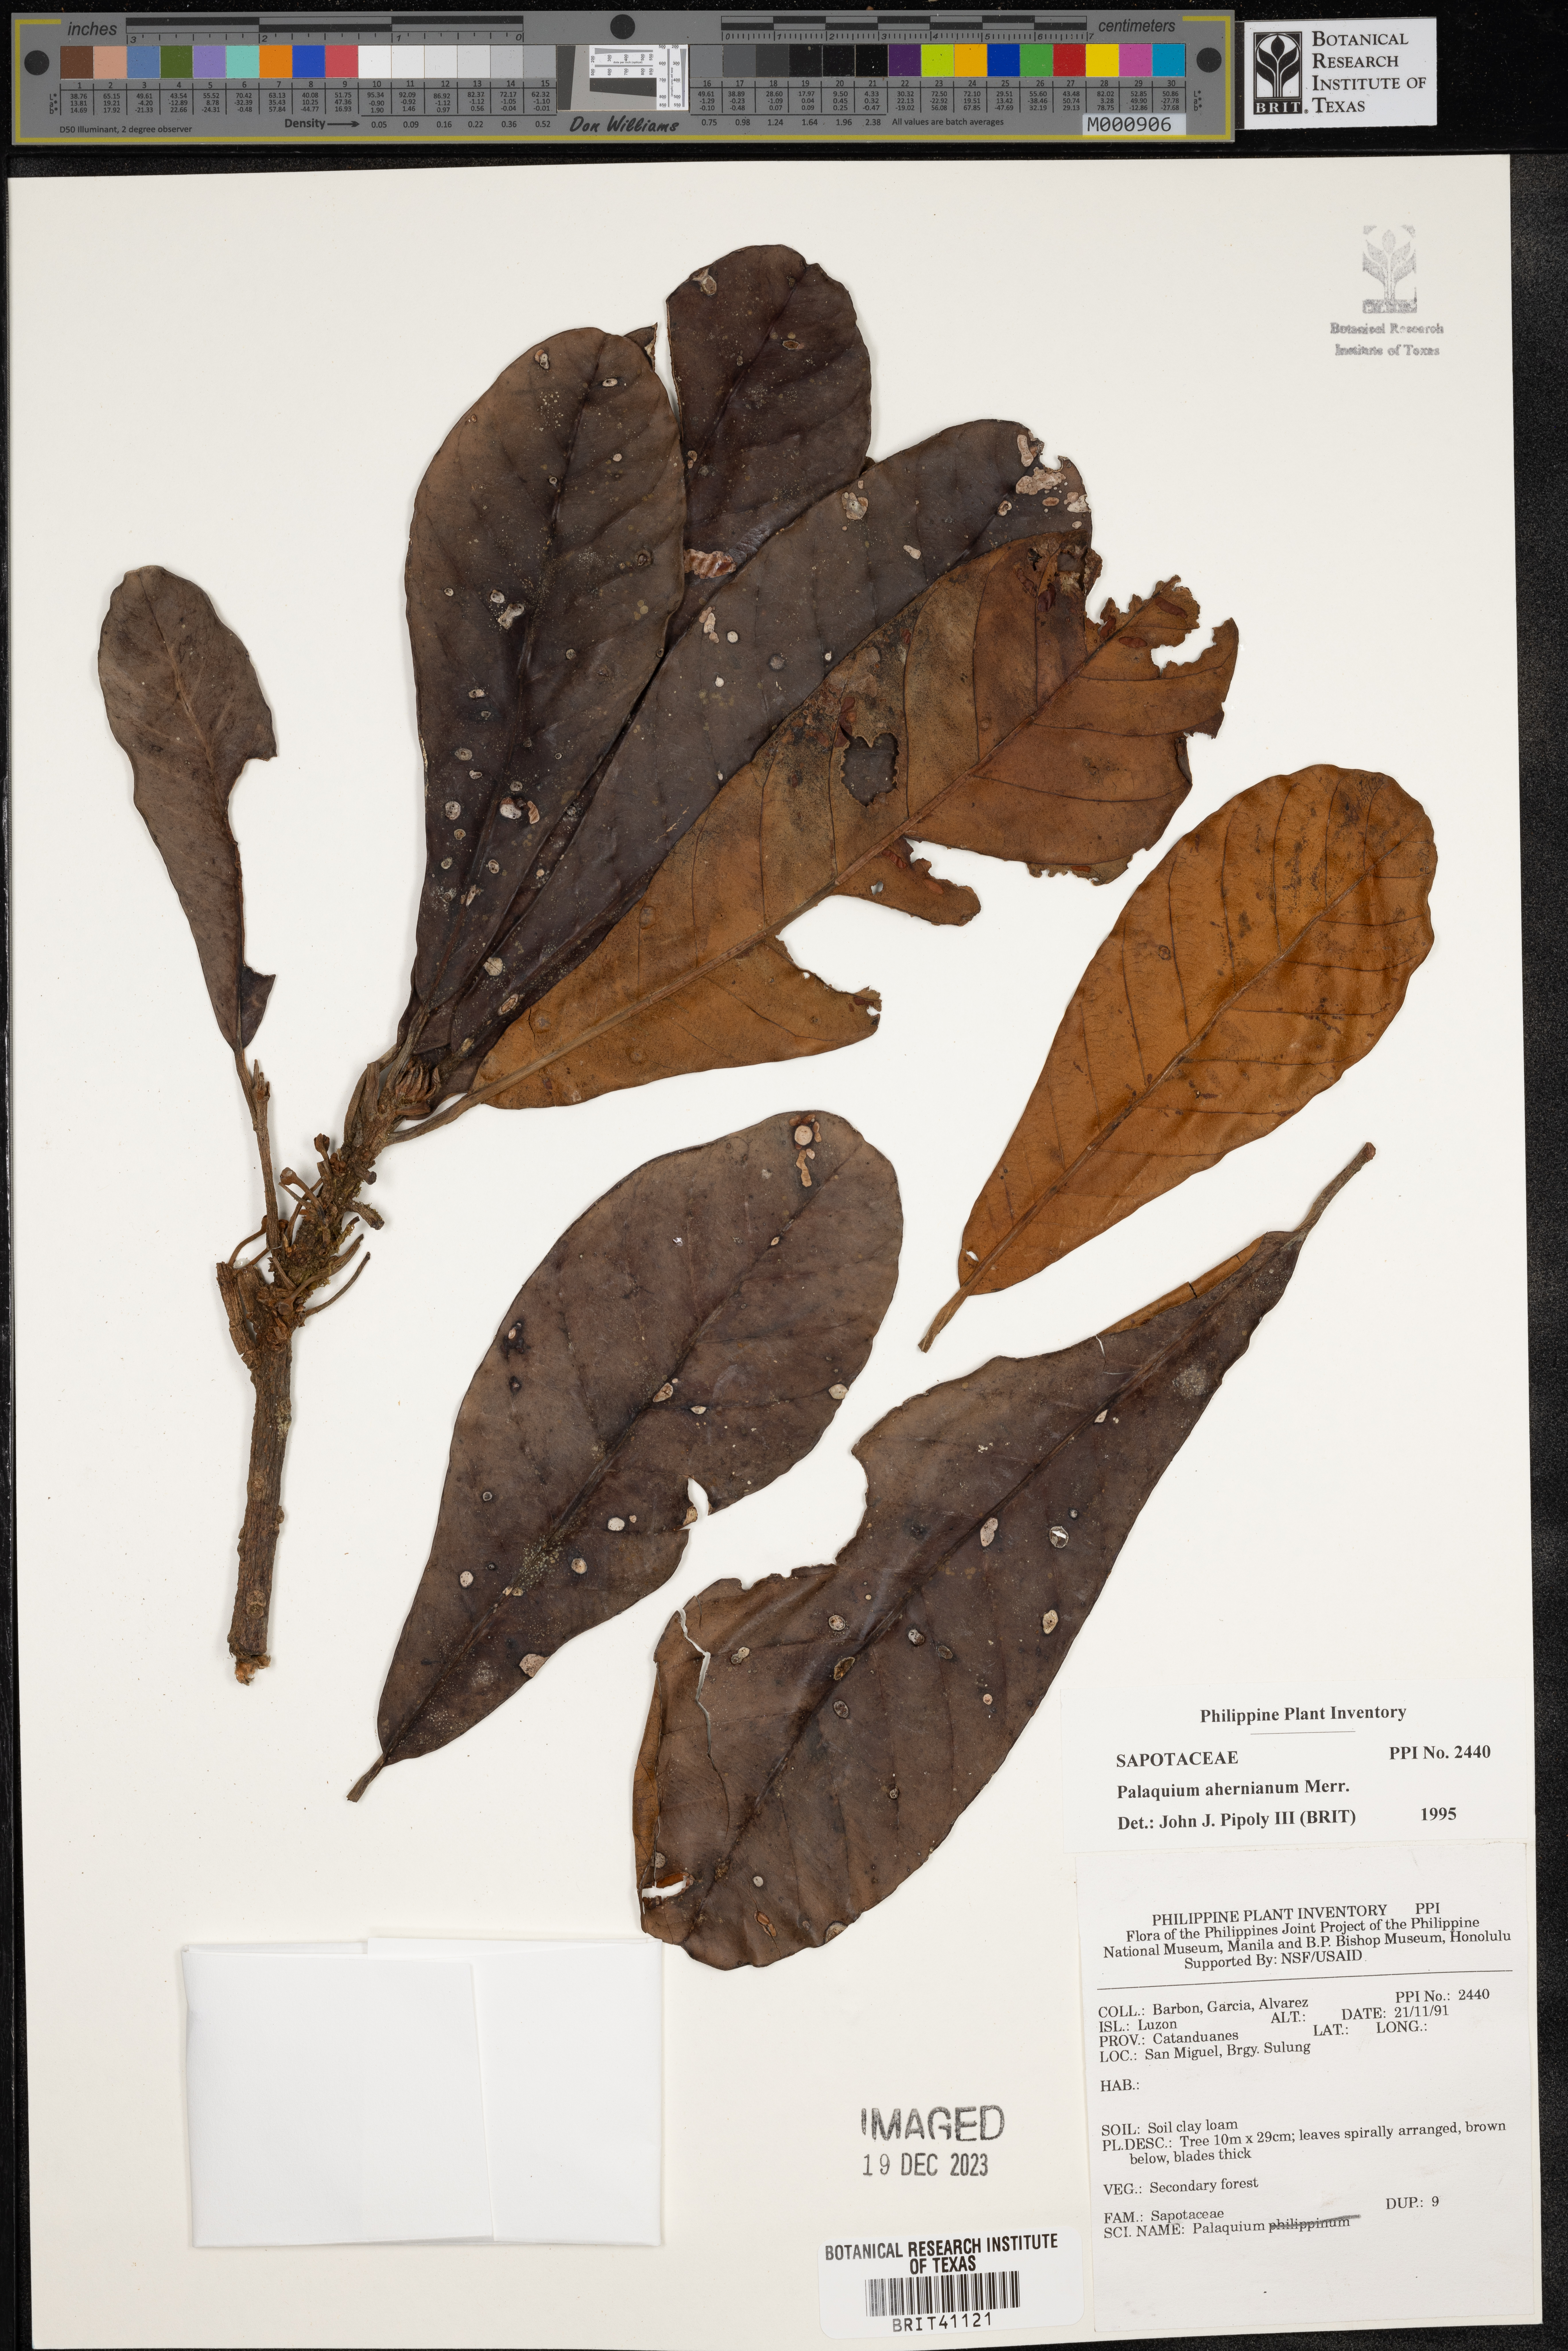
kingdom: Plantae
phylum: Tracheophyta
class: Magnoliopsida
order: Ericales
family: Sapotaceae
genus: Palaquium
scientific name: Palaquium luzoniense
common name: Red nato
